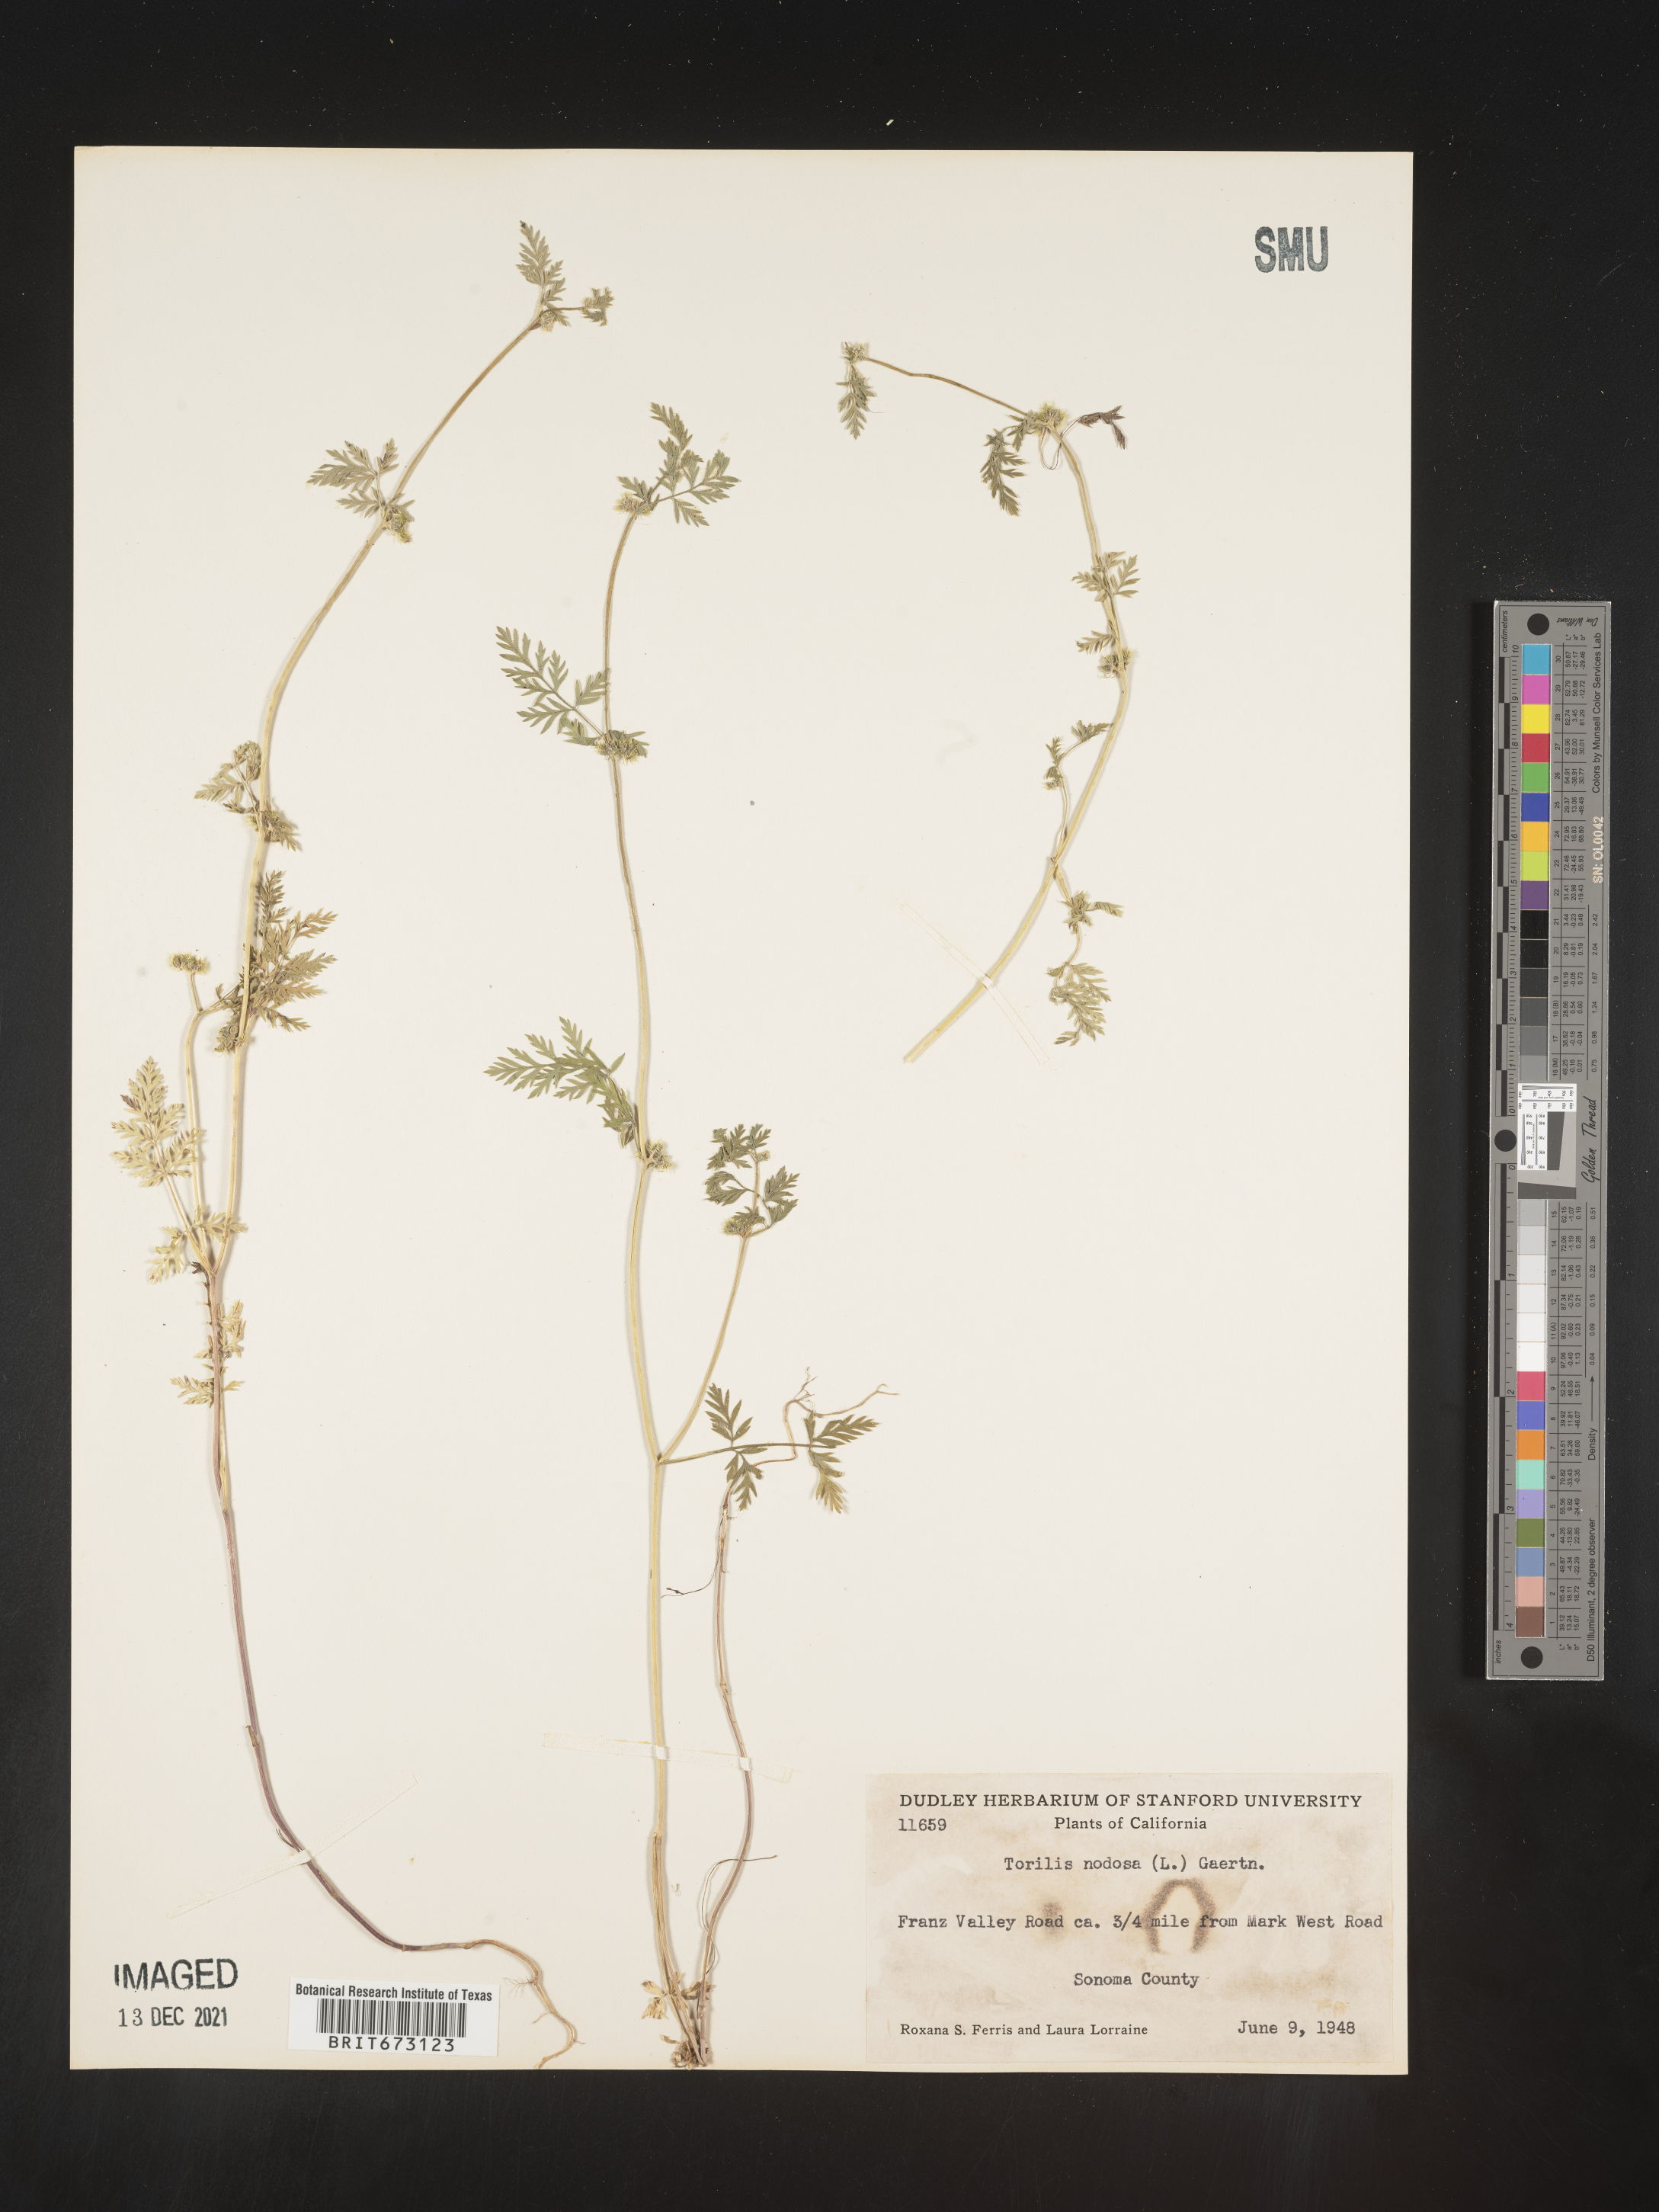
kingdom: Plantae
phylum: Tracheophyta
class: Magnoliopsida
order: Apiales
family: Apiaceae
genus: Torilis
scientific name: Torilis nodosa
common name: Knotted hedge-parsley
